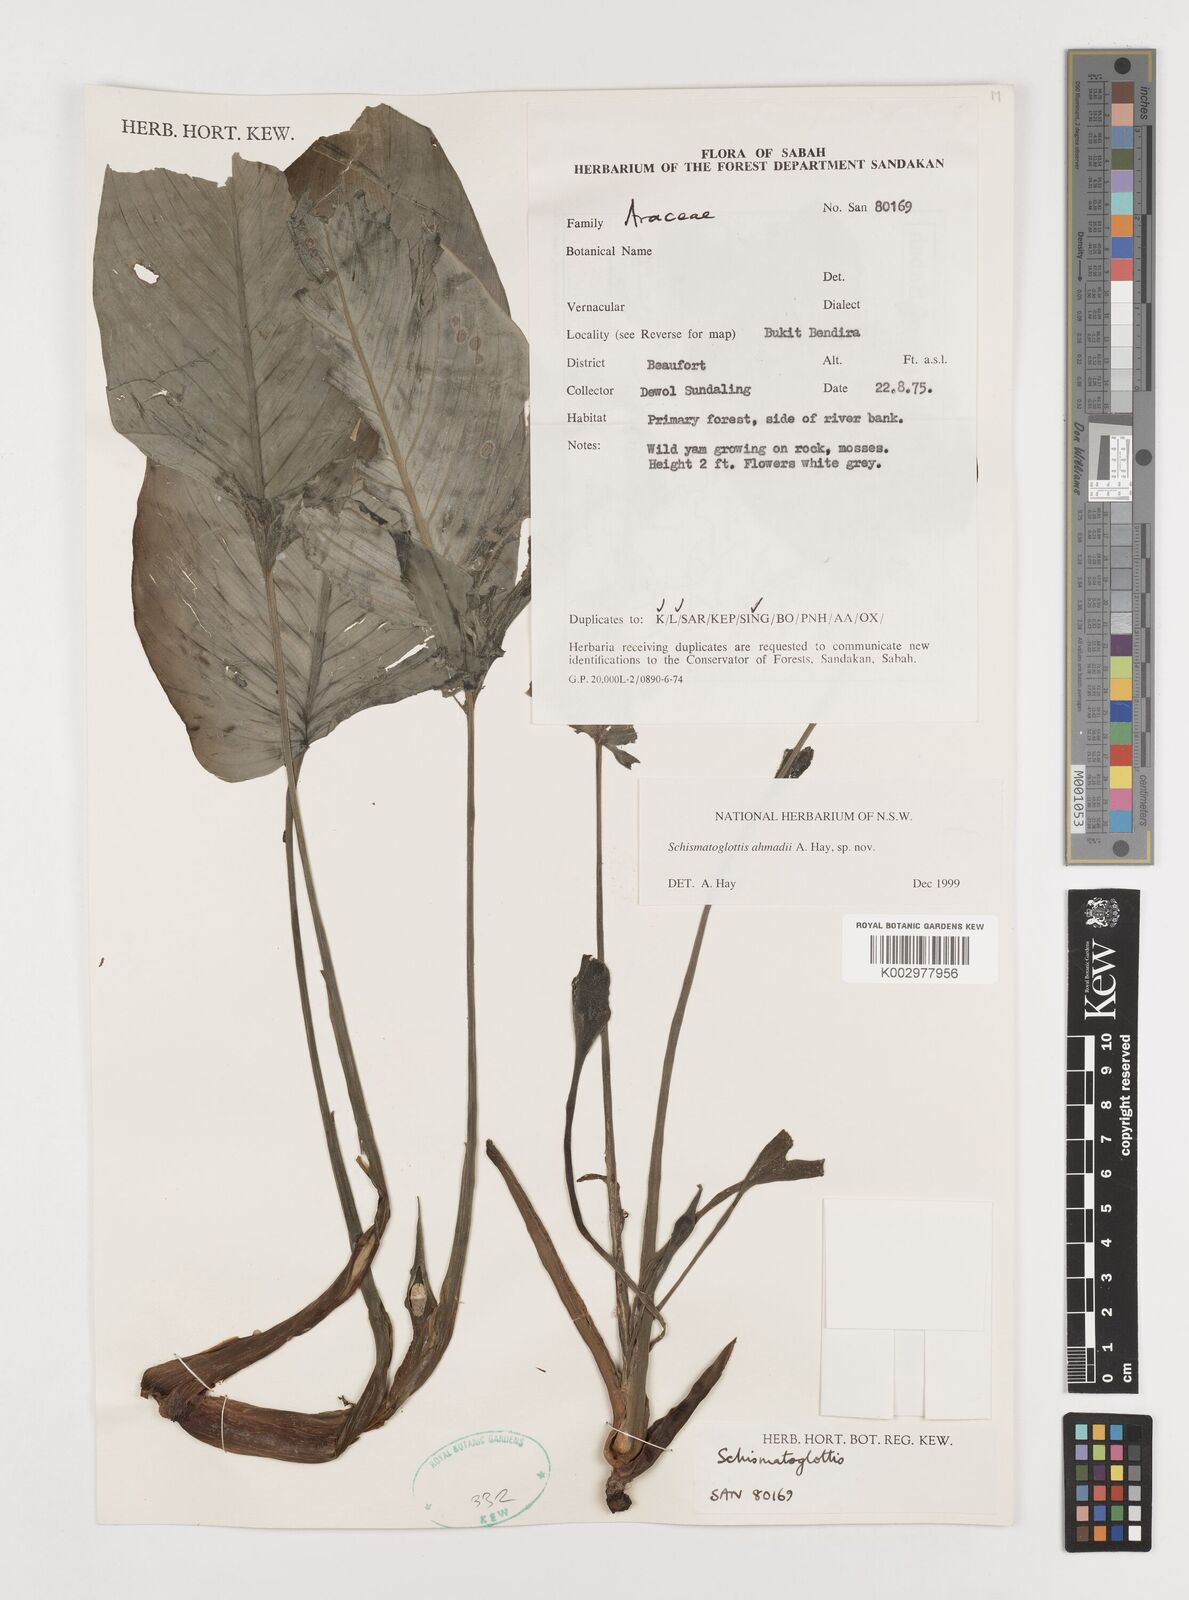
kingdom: Plantae
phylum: Tracheophyta
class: Liliopsida
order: Alismatales
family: Araceae
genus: Schismatoglottis
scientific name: Schismatoglottis ahmadii
